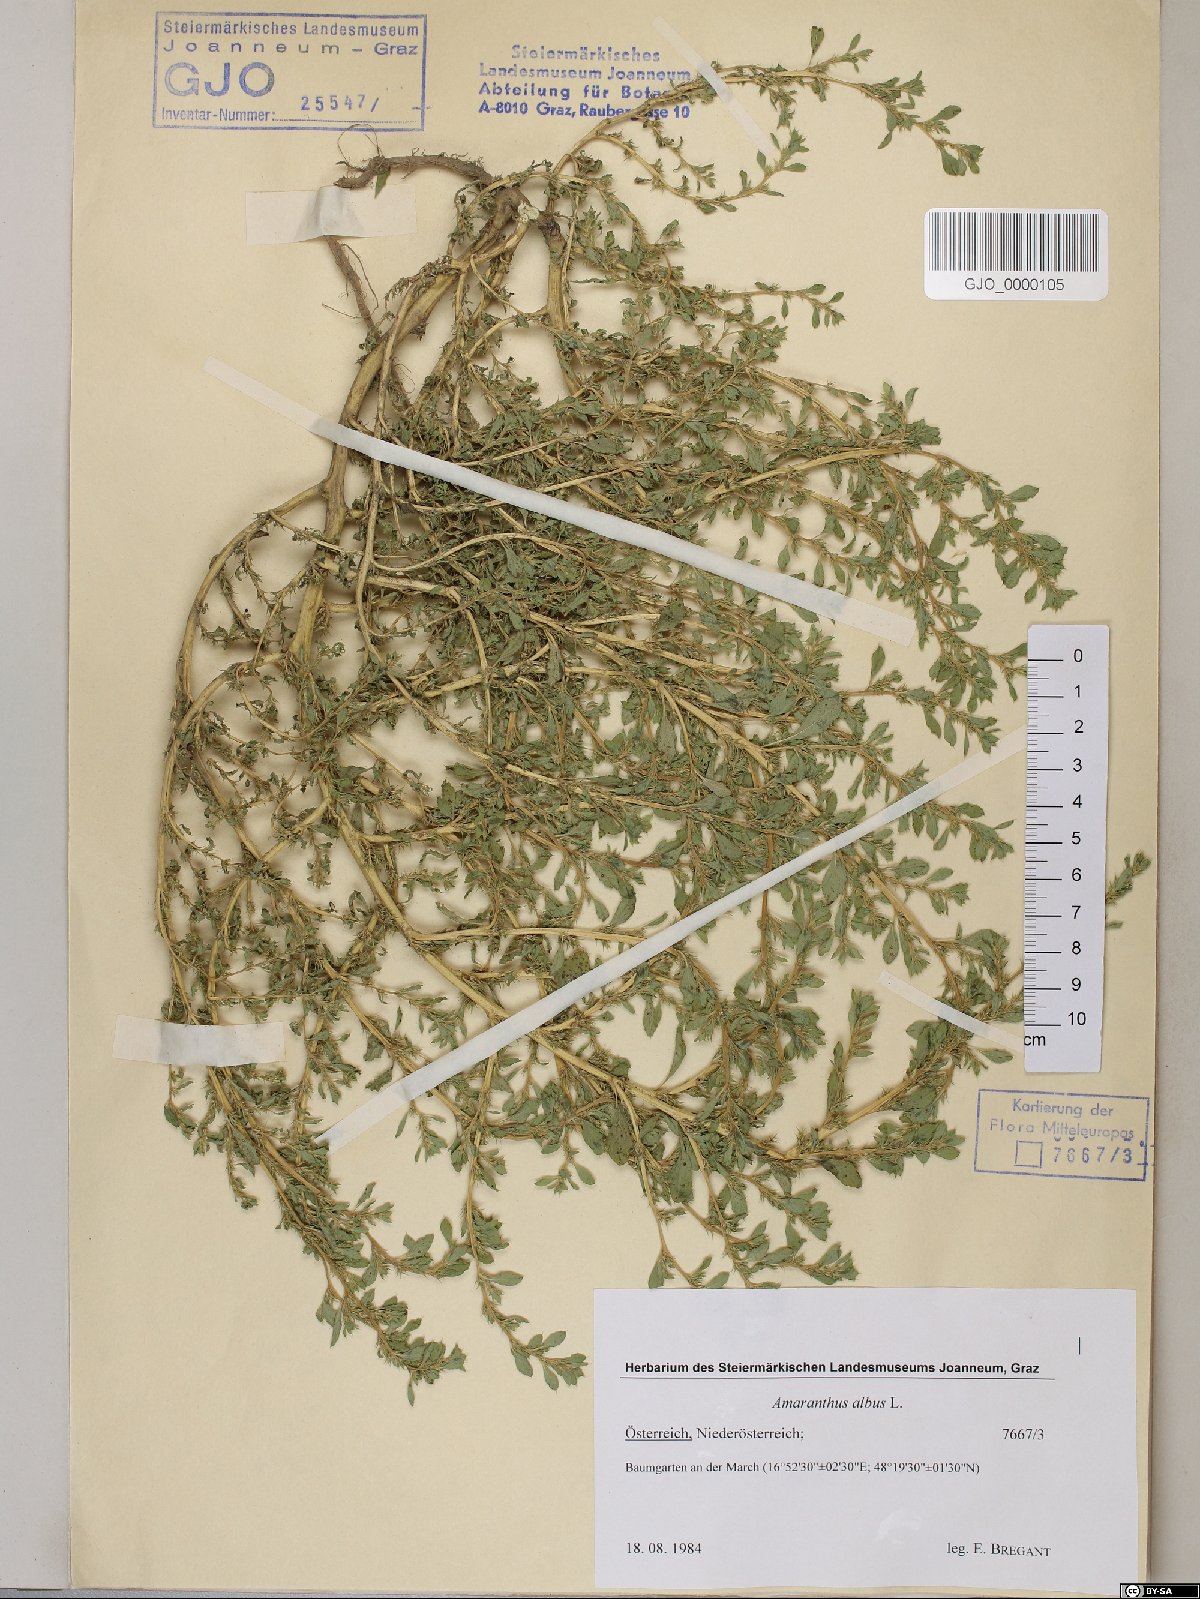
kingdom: Plantae
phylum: Tracheophyta
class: Magnoliopsida
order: Caryophyllales
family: Amaranthaceae
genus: Amaranthus
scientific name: Amaranthus albus
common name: White pigweed
